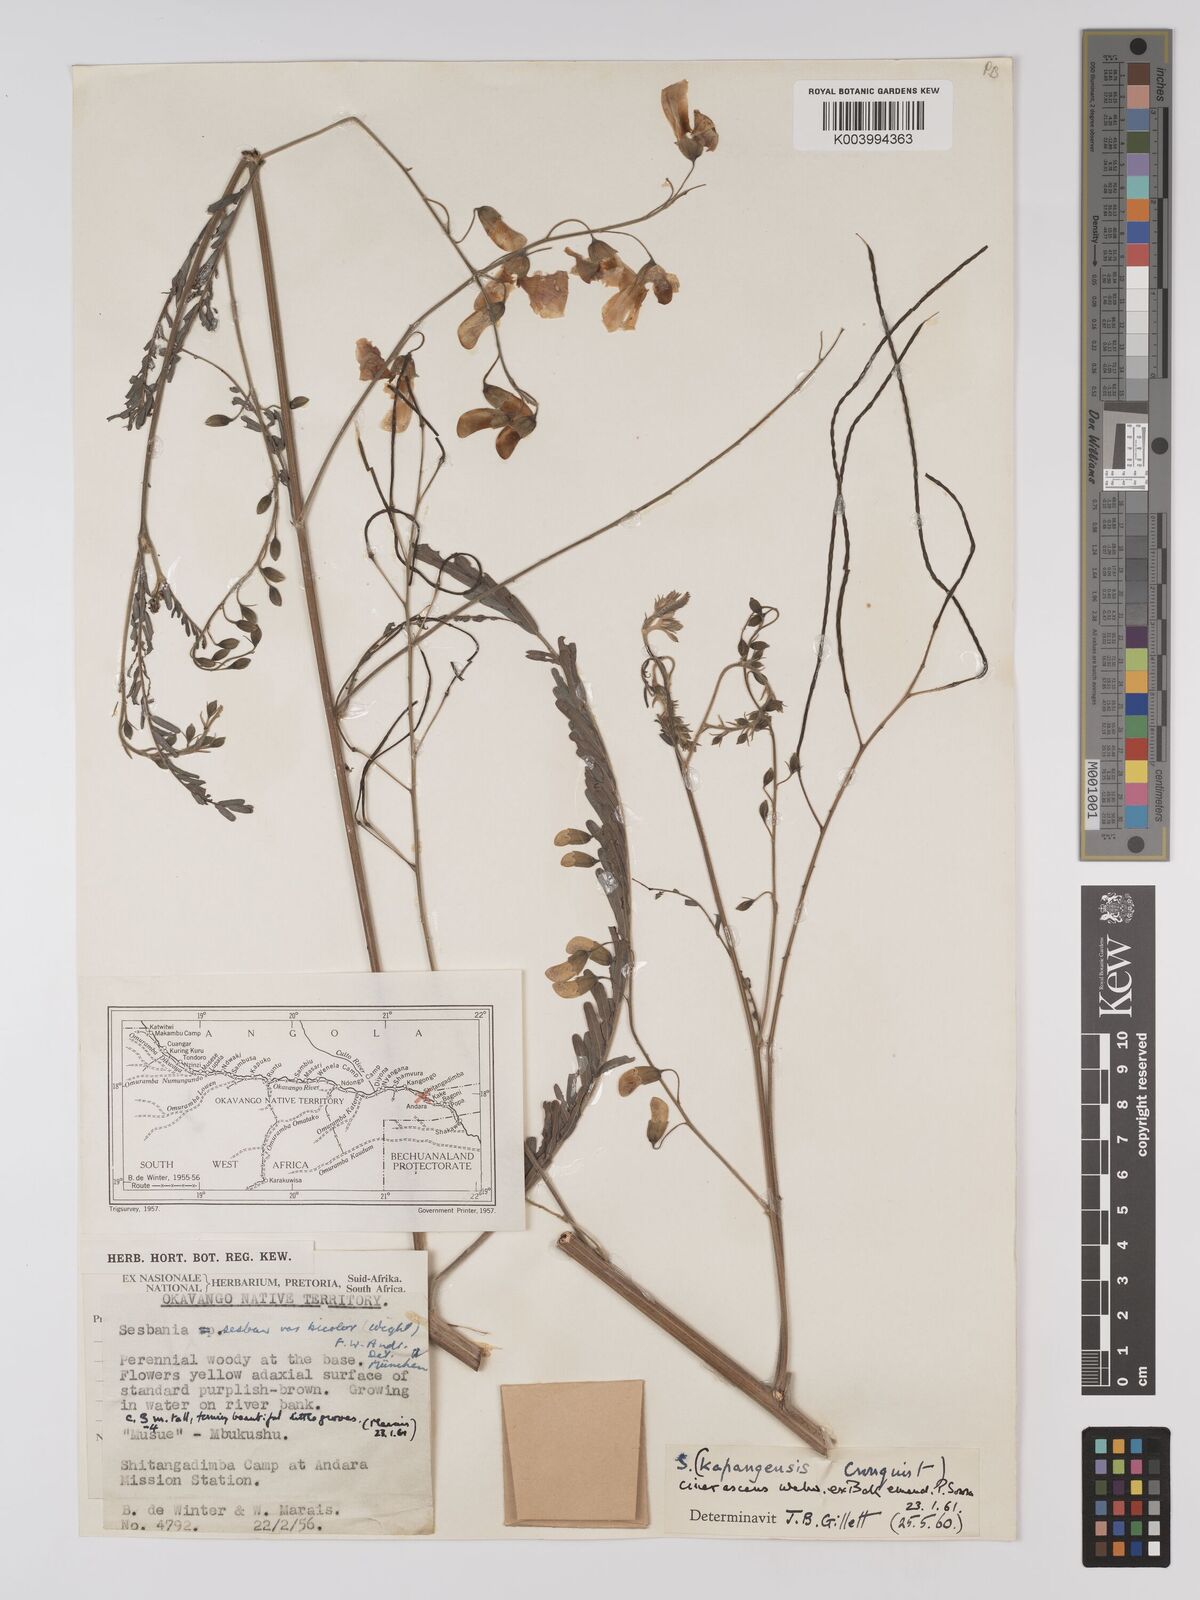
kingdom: Plantae
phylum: Tracheophyta
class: Magnoliopsida
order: Fabales
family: Fabaceae
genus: Sesbania
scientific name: Sesbania cinerascens
